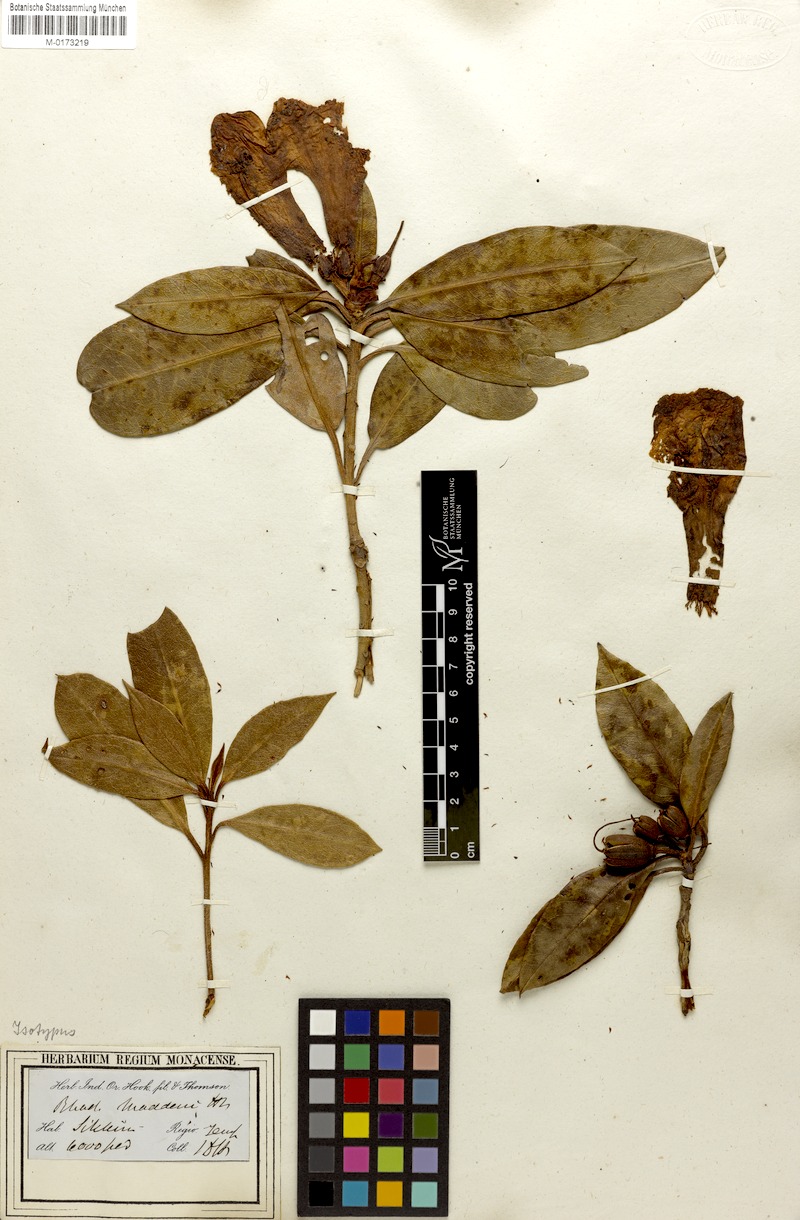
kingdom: Plantae
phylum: Tracheophyta
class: Magnoliopsida
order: Ericales
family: Ericaceae
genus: Rhododendron
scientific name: Rhododendron maddenii
